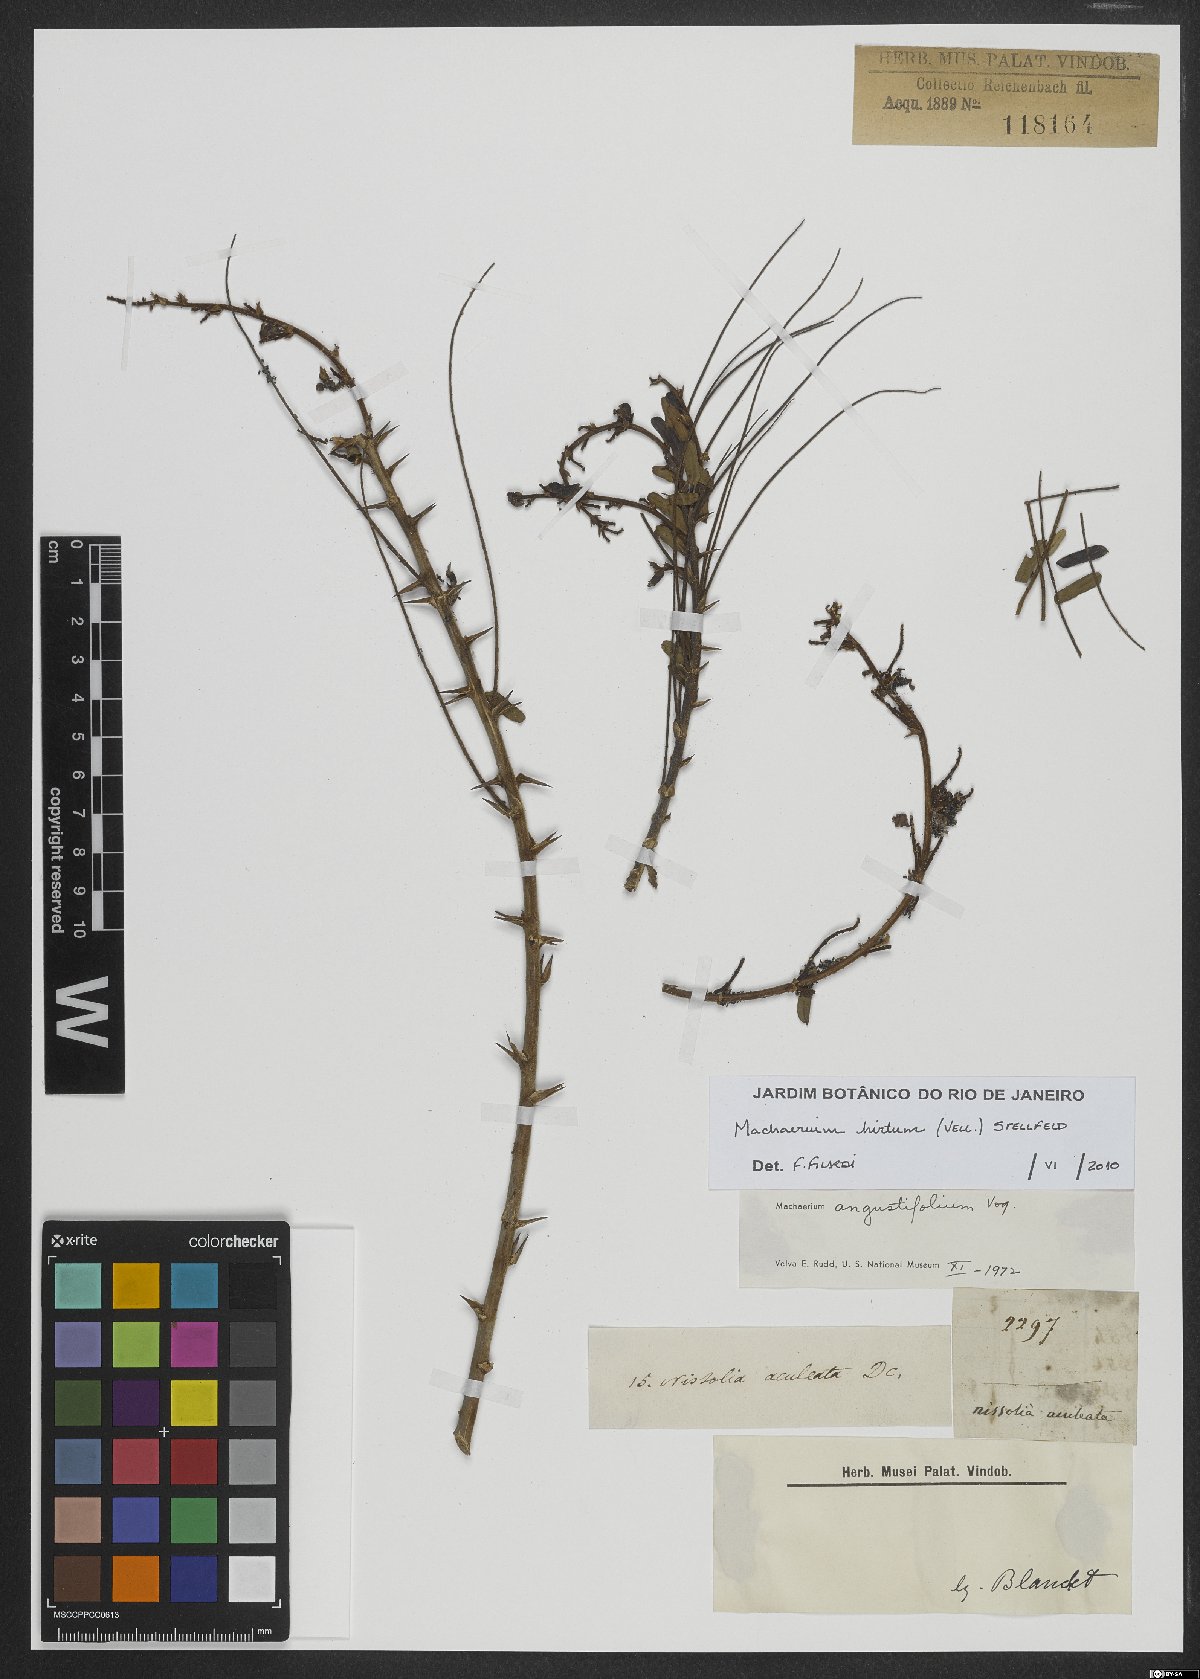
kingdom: Plantae
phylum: Tracheophyta
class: Magnoliopsida
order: Fabales
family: Fabaceae
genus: Machaerium
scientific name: Machaerium hirtum
